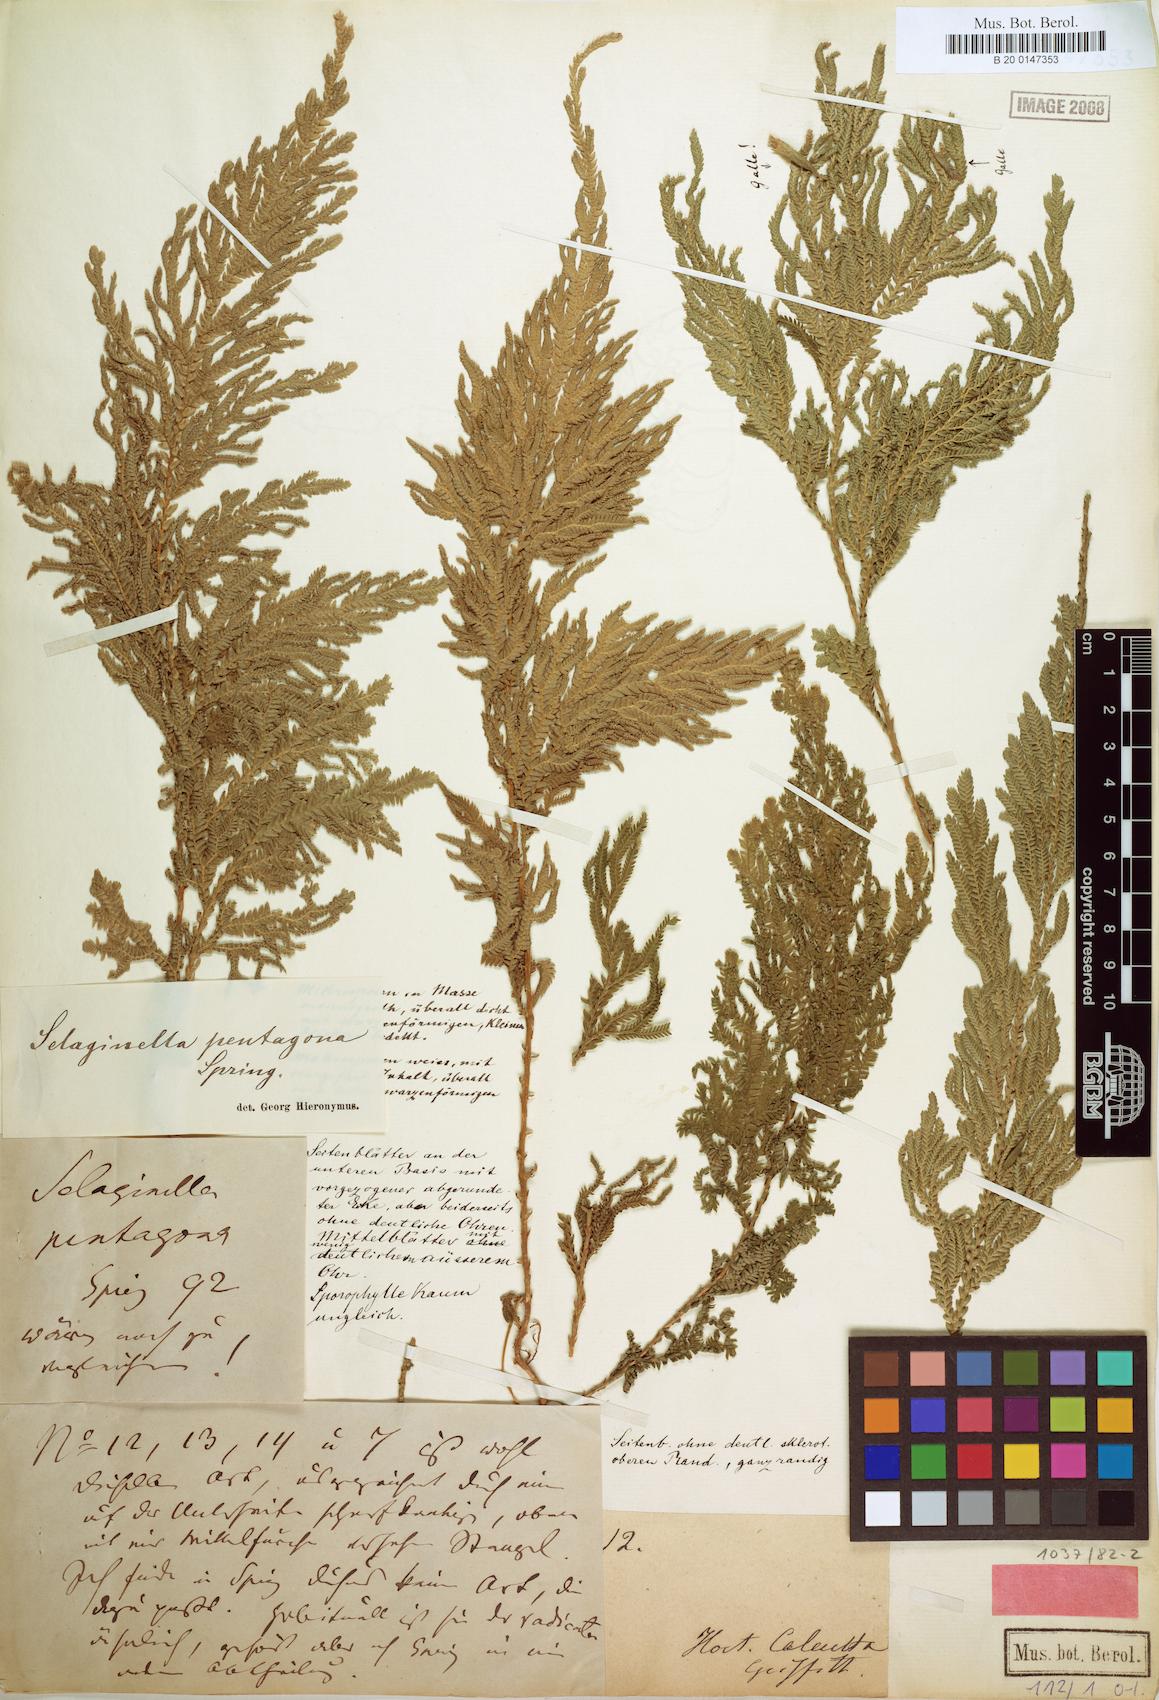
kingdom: Plantae
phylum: Tracheophyta
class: Lycopodiopsida
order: Selaginellales
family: Selaginellaceae
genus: Selaginella
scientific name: Selaginella pentagona
